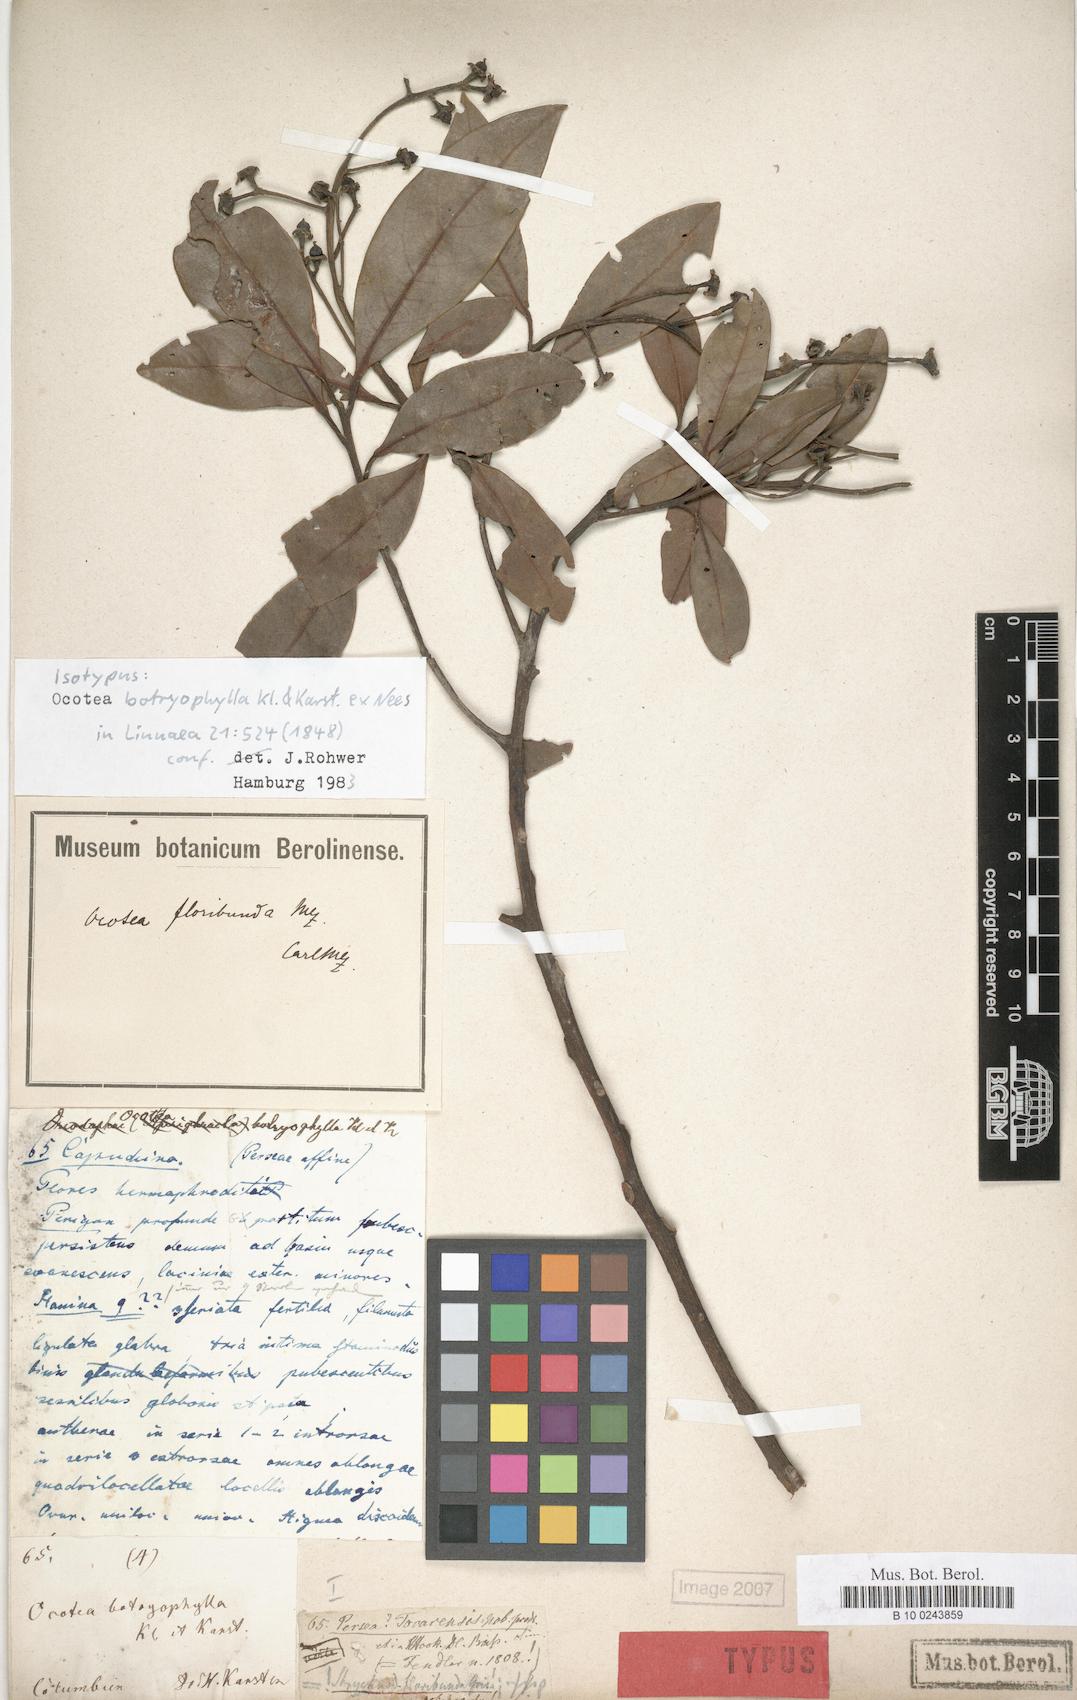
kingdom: Plantae
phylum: Tracheophyta
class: Magnoliopsida
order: Laurales
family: Lauraceae
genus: Ocotea
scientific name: Ocotea floribunda
